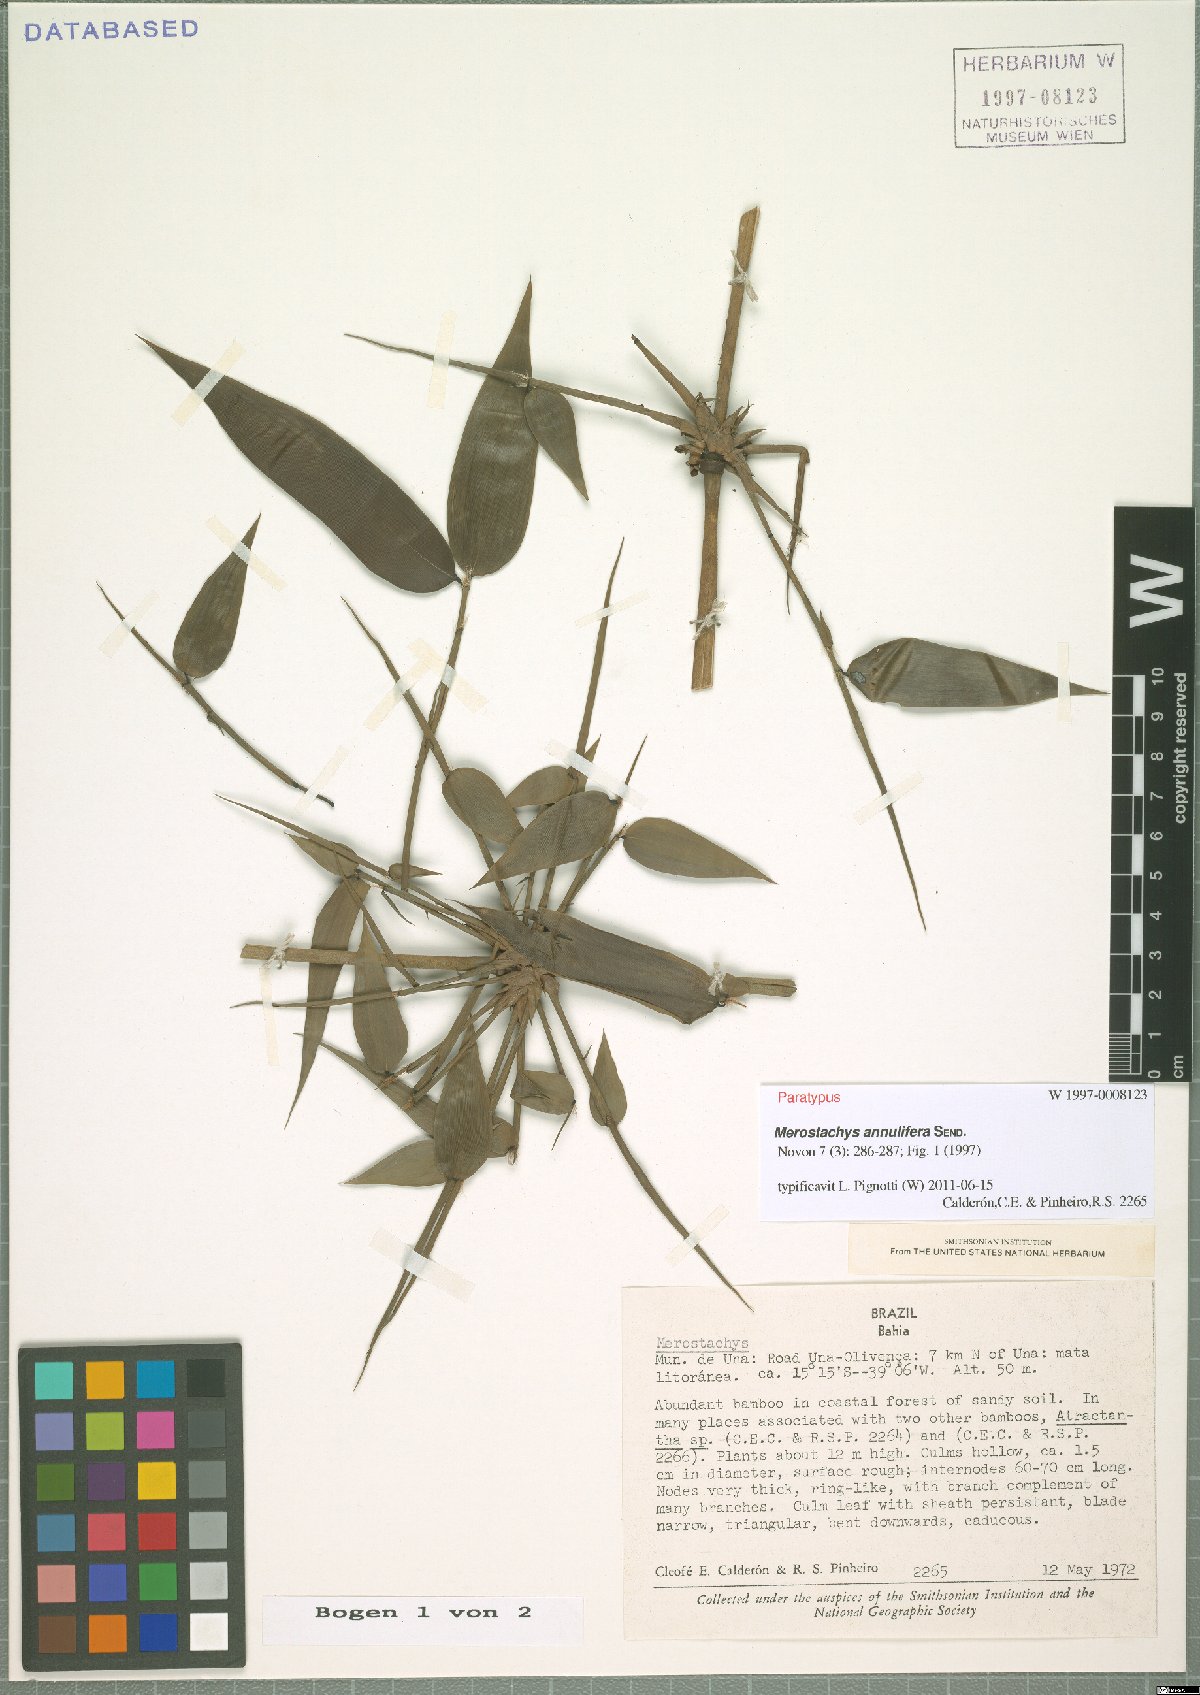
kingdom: Plantae
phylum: Tracheophyta
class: Liliopsida
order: Poales
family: Poaceae
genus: Merostachys
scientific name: Merostachys annulifera
